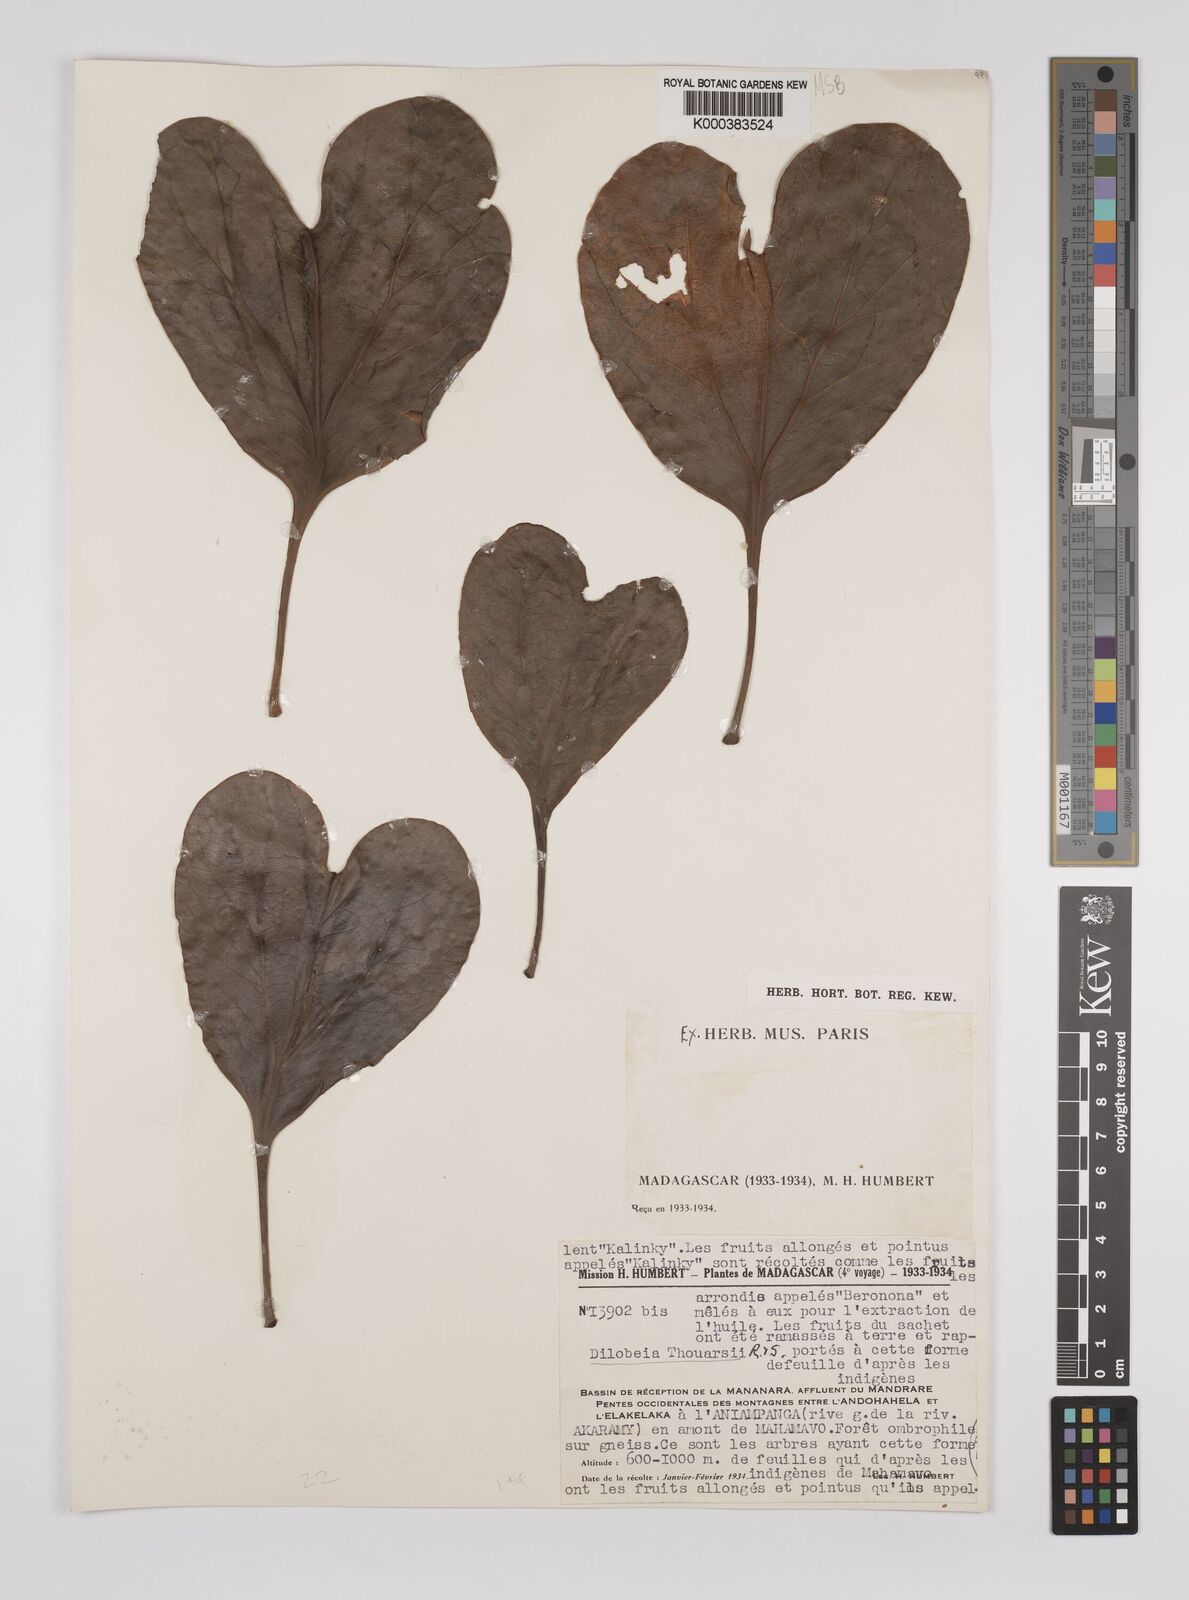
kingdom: Plantae
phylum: Tracheophyta
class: Magnoliopsida
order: Proteales
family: Proteaceae
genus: Dilobeia
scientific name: Dilobeia thouarsii
